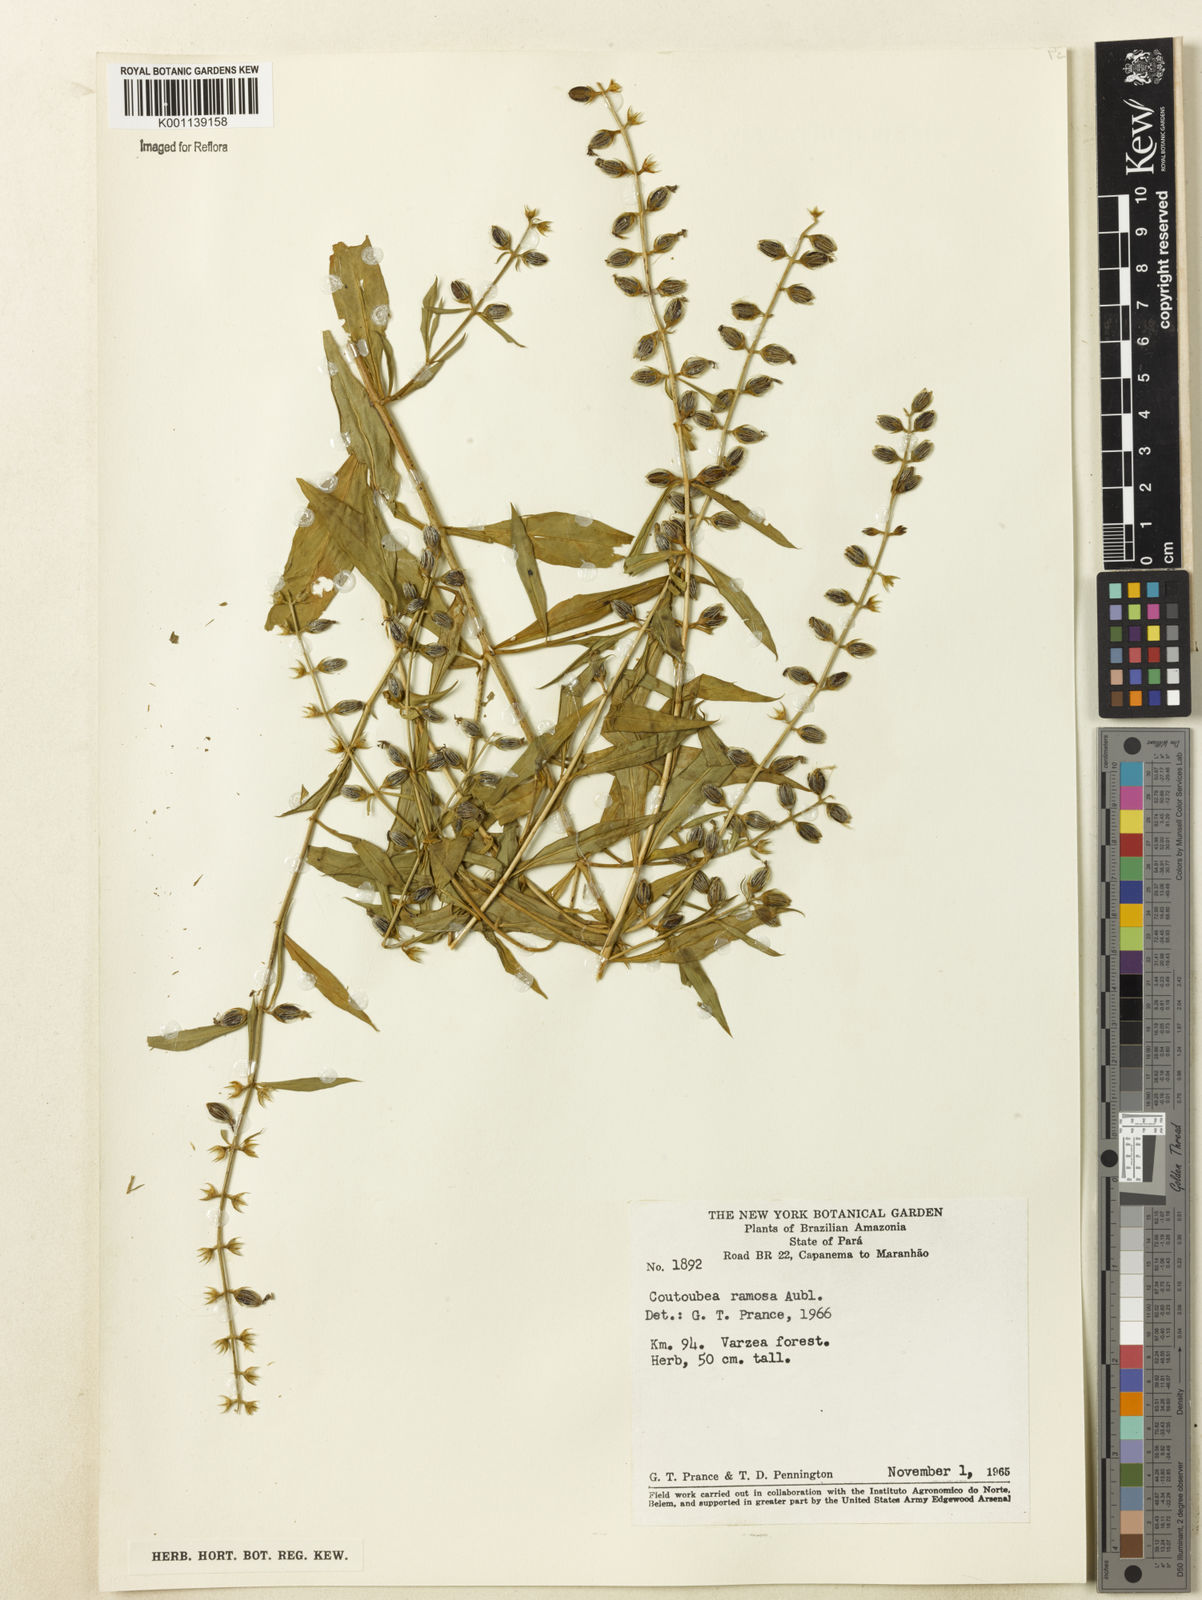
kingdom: Plantae
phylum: Tracheophyta
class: Magnoliopsida
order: Gentianales
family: Gentianaceae
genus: Coutoubea
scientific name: Coutoubea ramosa
